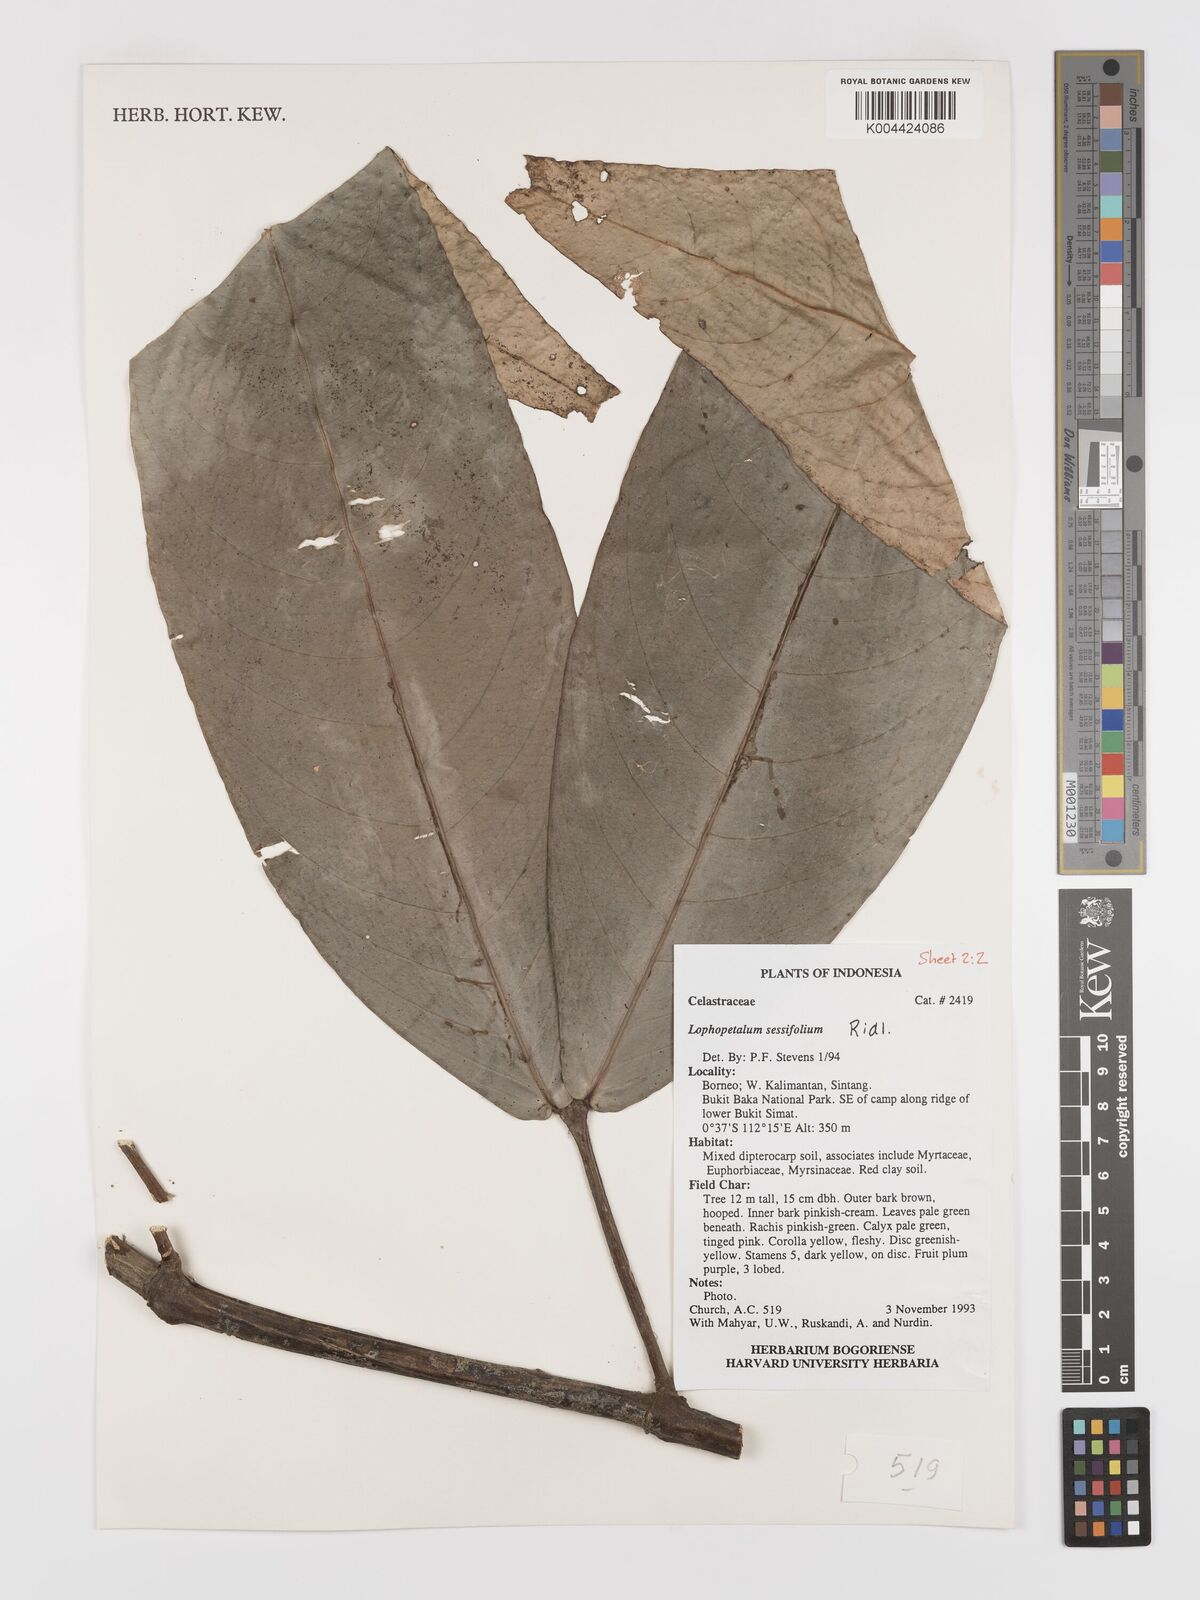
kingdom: Plantae
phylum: Tracheophyta
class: Magnoliopsida
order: Celastrales
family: Celastraceae
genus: Lophopetalum
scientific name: Lophopetalum sessilifolium
